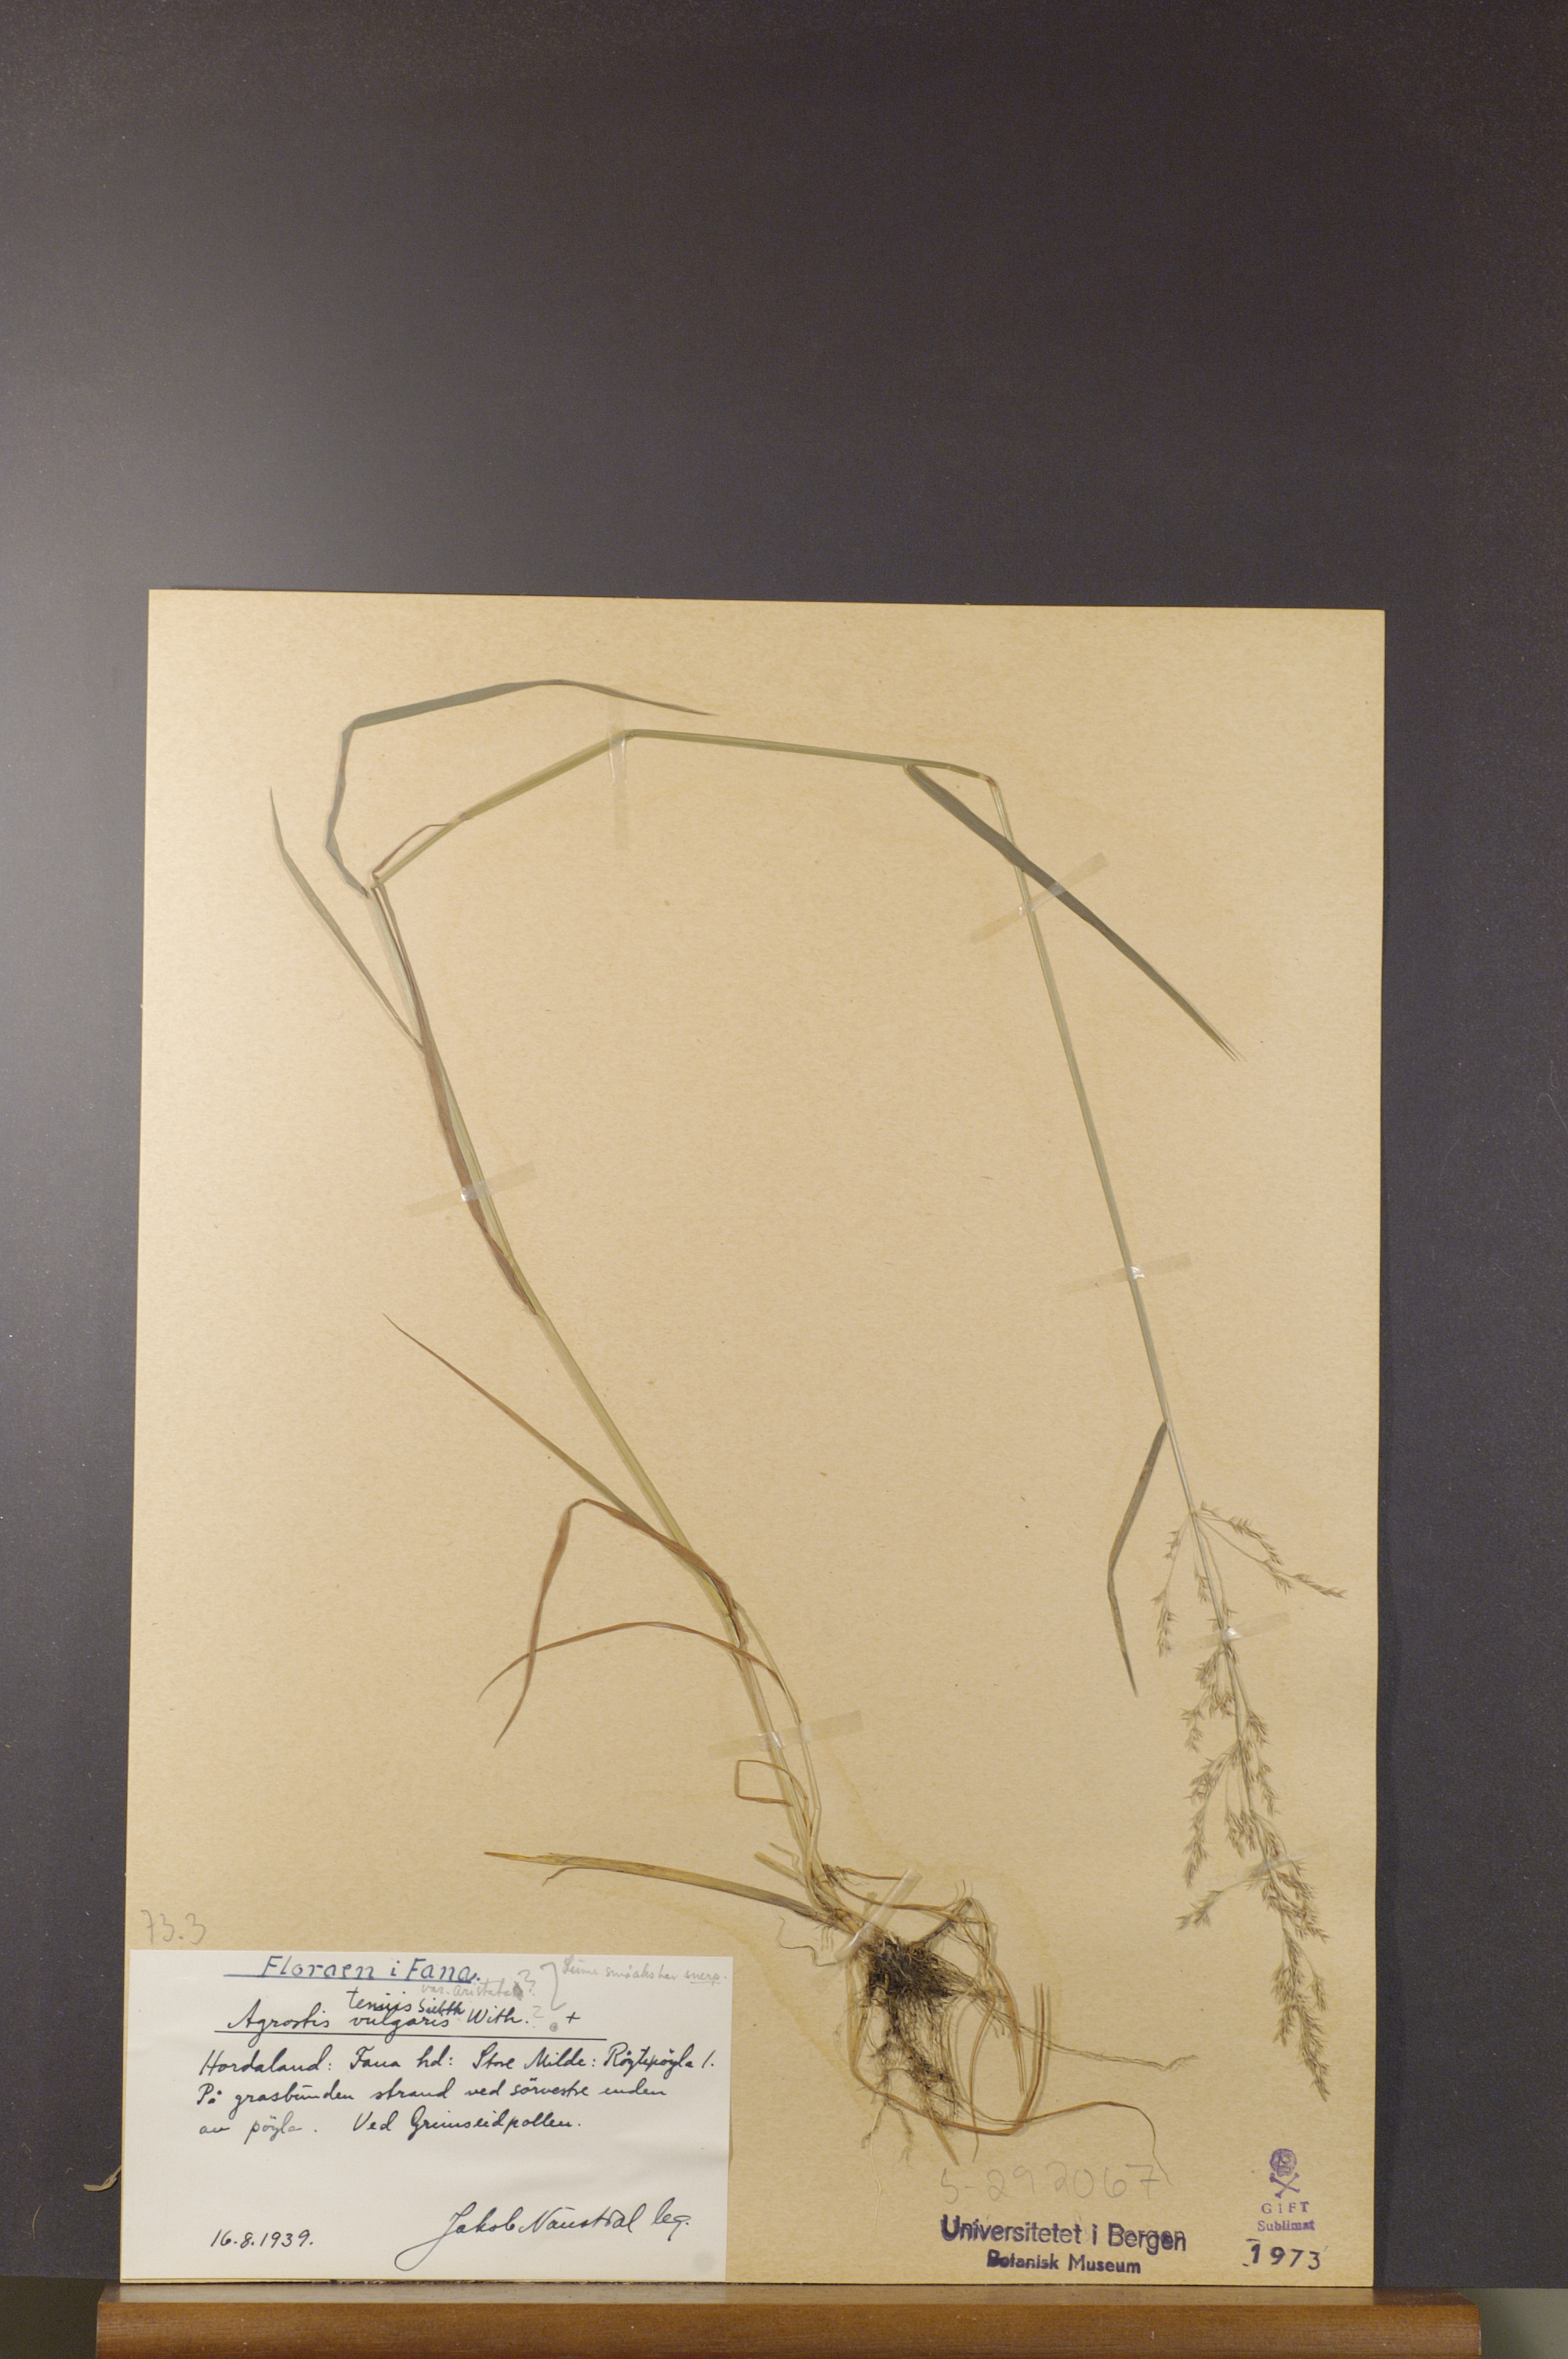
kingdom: Plantae
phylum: Tracheophyta
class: Liliopsida
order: Poales
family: Poaceae
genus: Agrostis
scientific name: Agrostis capillaris
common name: Colonial bentgrass
